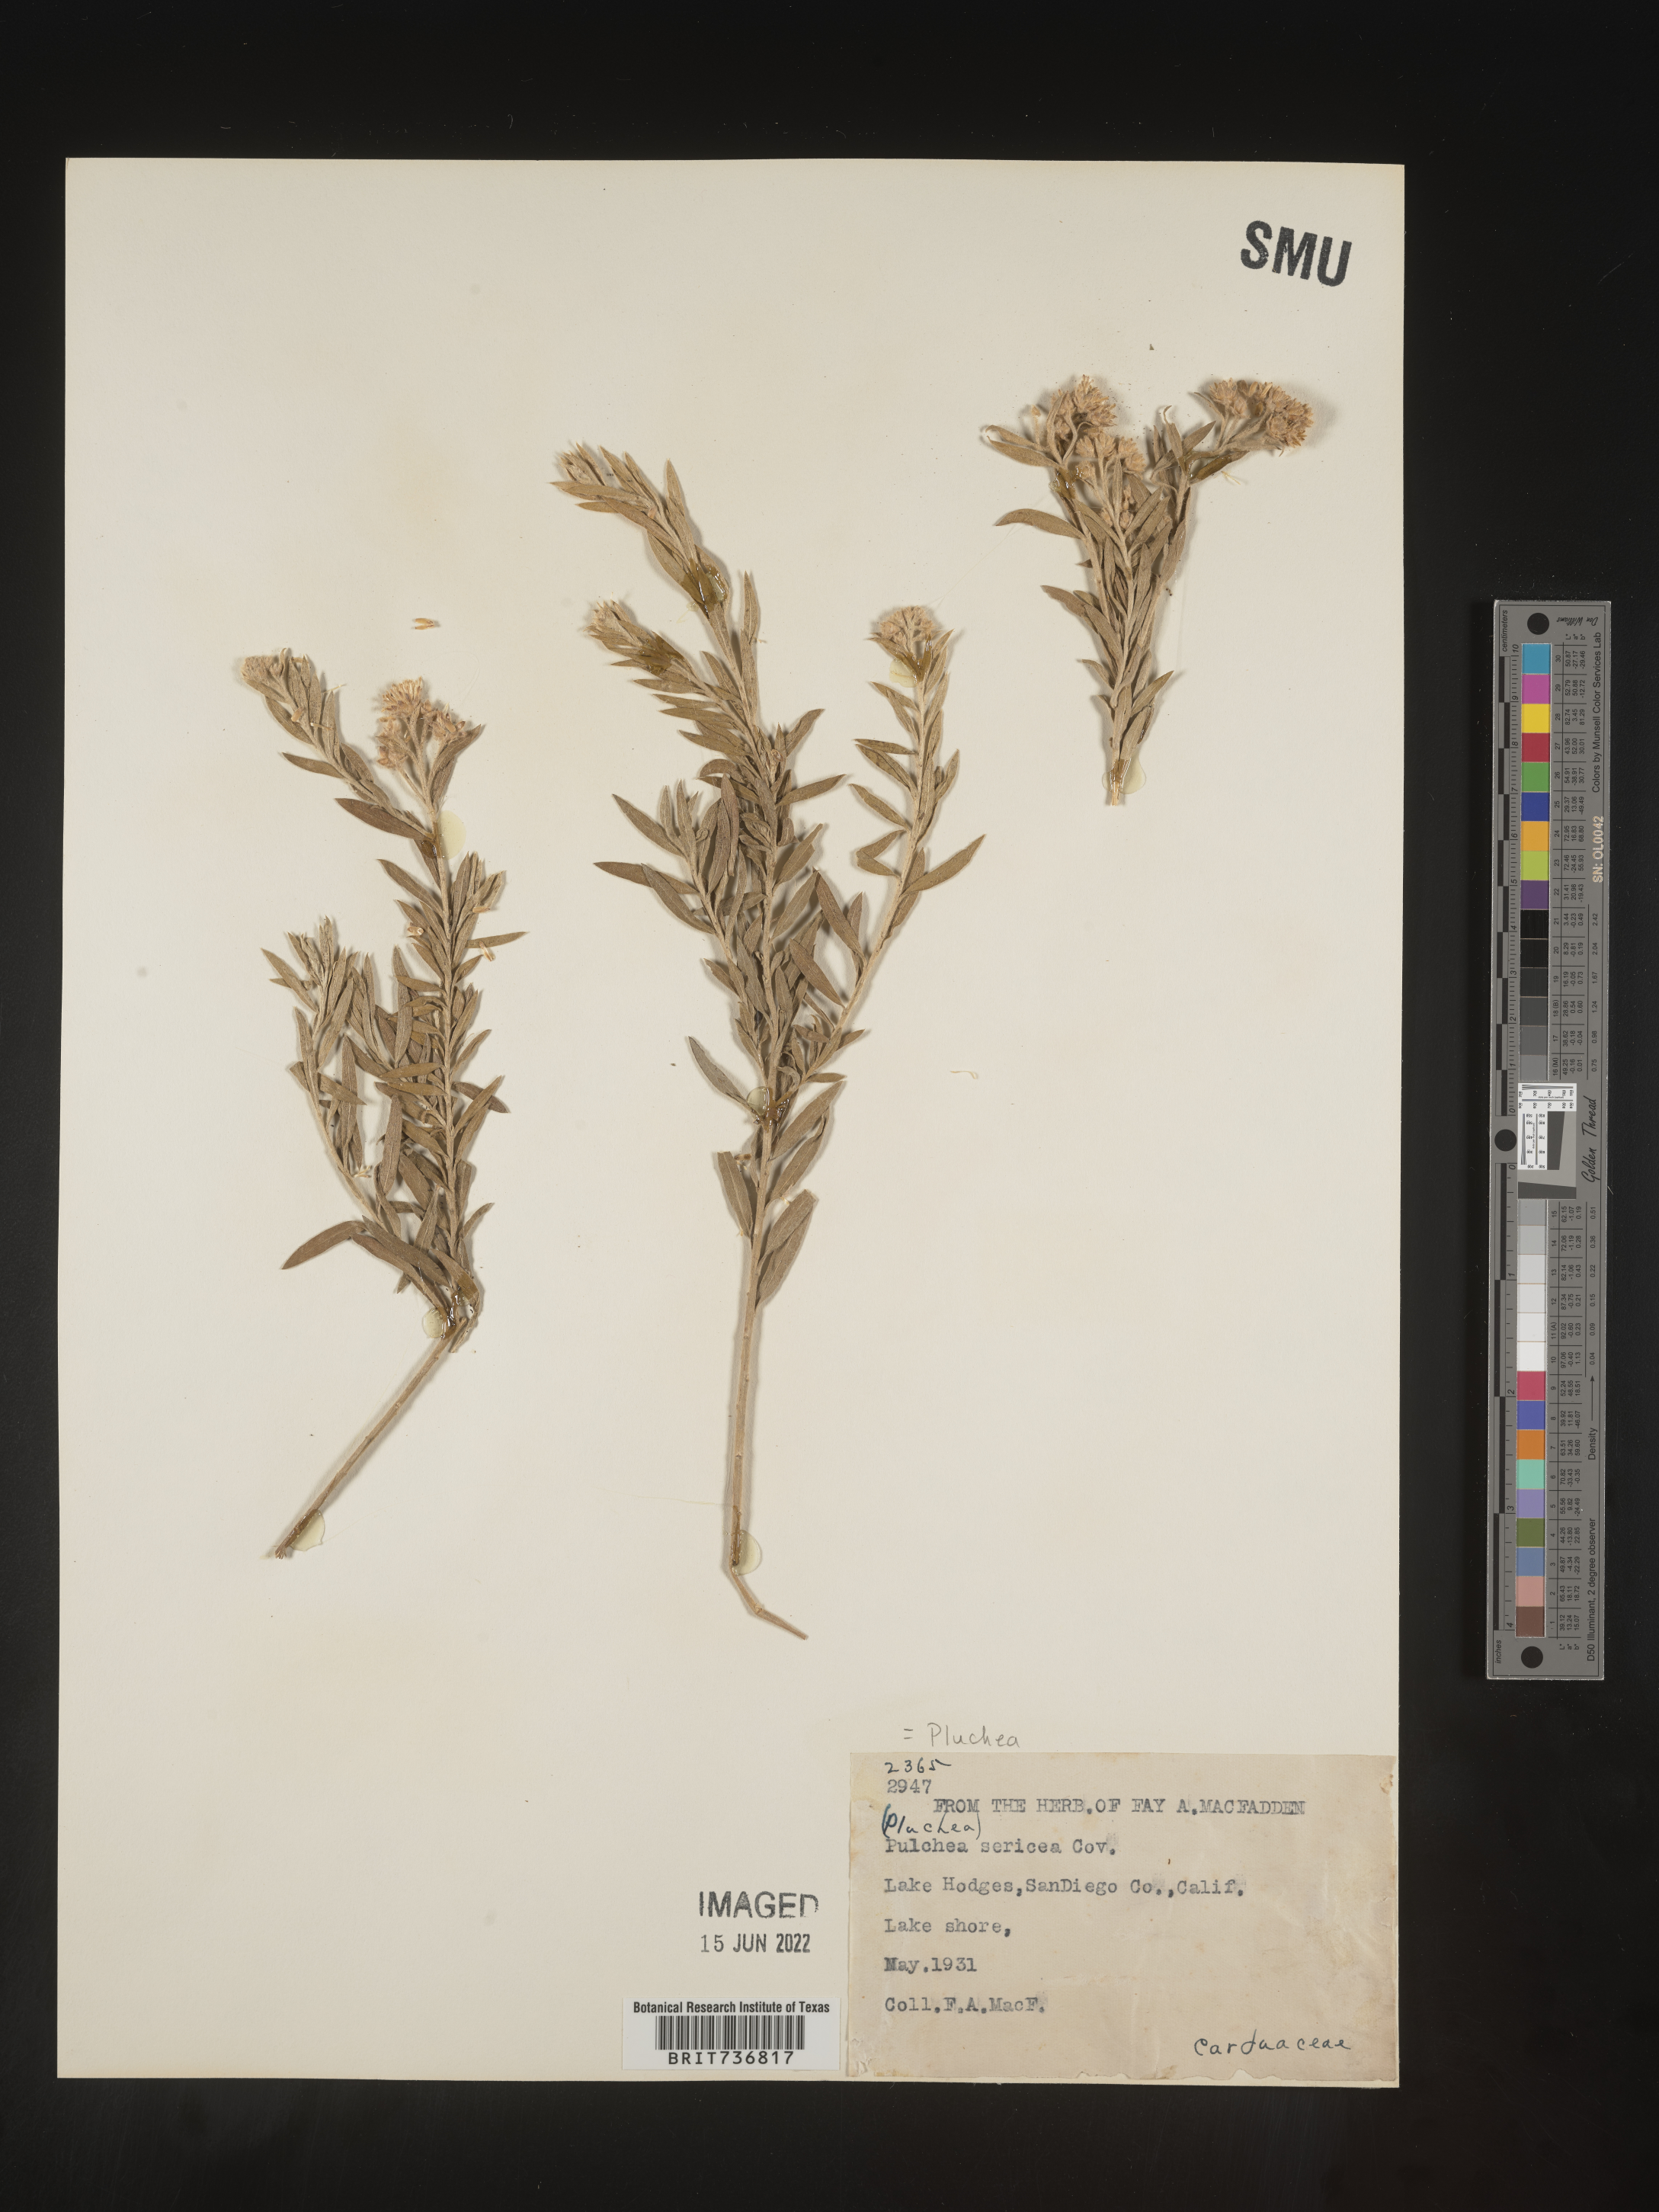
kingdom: Plantae
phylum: Tracheophyta
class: Magnoliopsida
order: Asterales
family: Asteraceae
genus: Pluchea
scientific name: Pluchea sericea
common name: Arrow-weed
